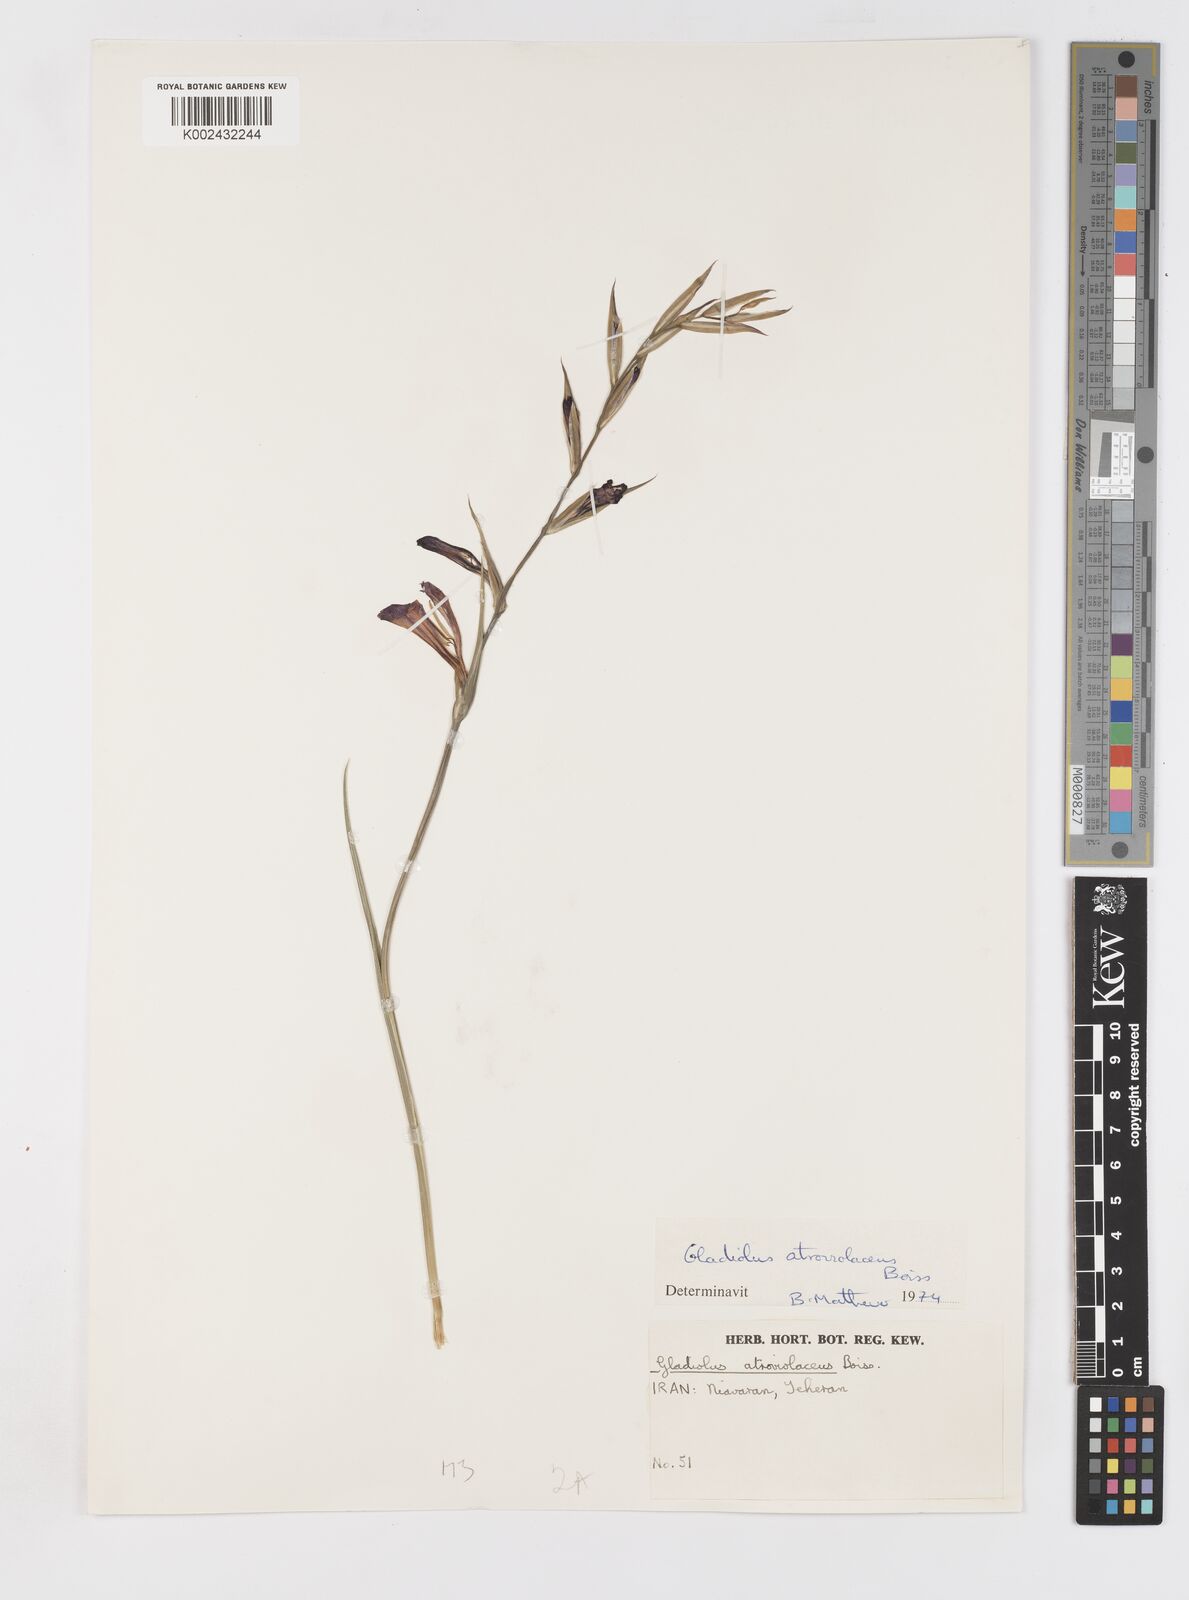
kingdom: Plantae
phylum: Tracheophyta
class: Liliopsida
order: Asparagales
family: Iridaceae
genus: Gladiolus
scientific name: Gladiolus atroviolaceus
